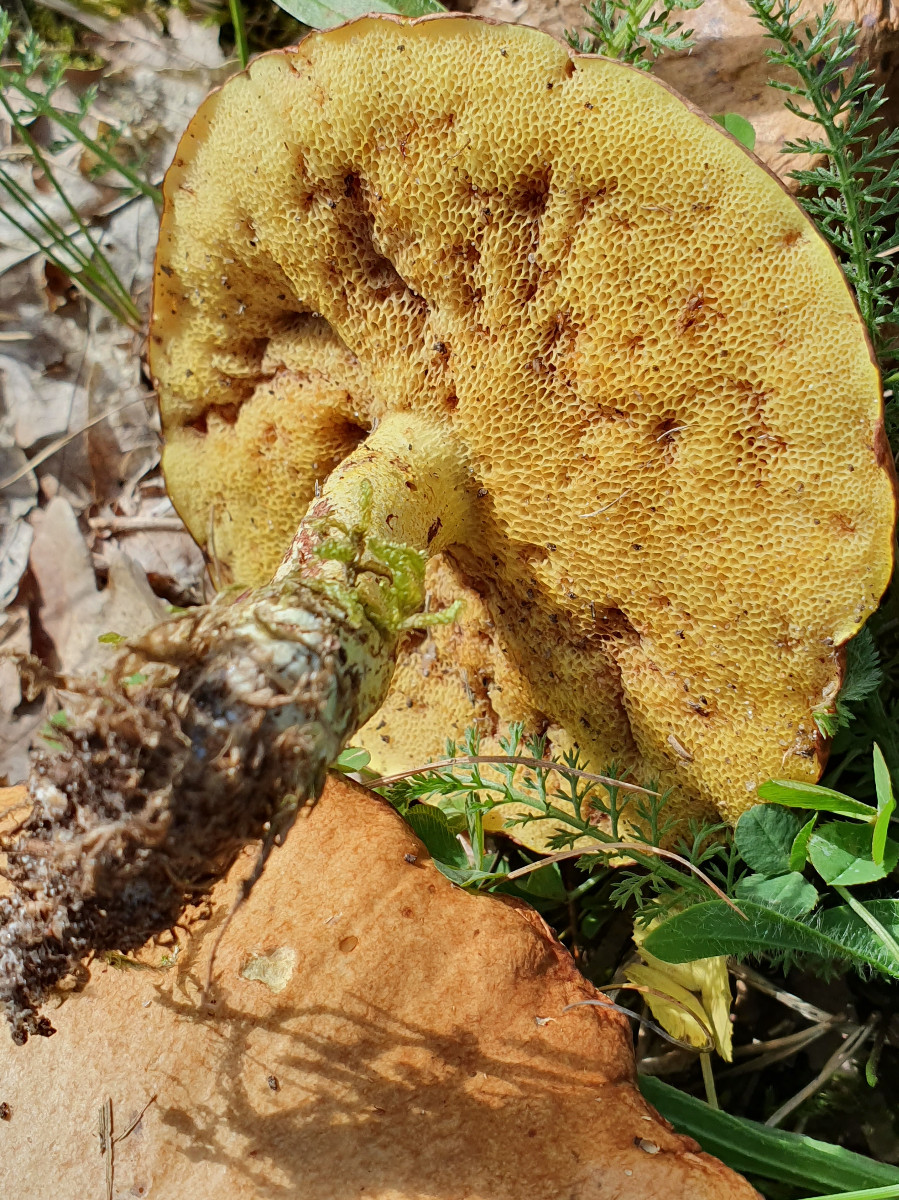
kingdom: Fungi
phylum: Basidiomycota
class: Agaricomycetes
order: Boletales
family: Suillaceae
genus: Suillus
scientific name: Suillus granulatus
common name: kornet slimrørhat
